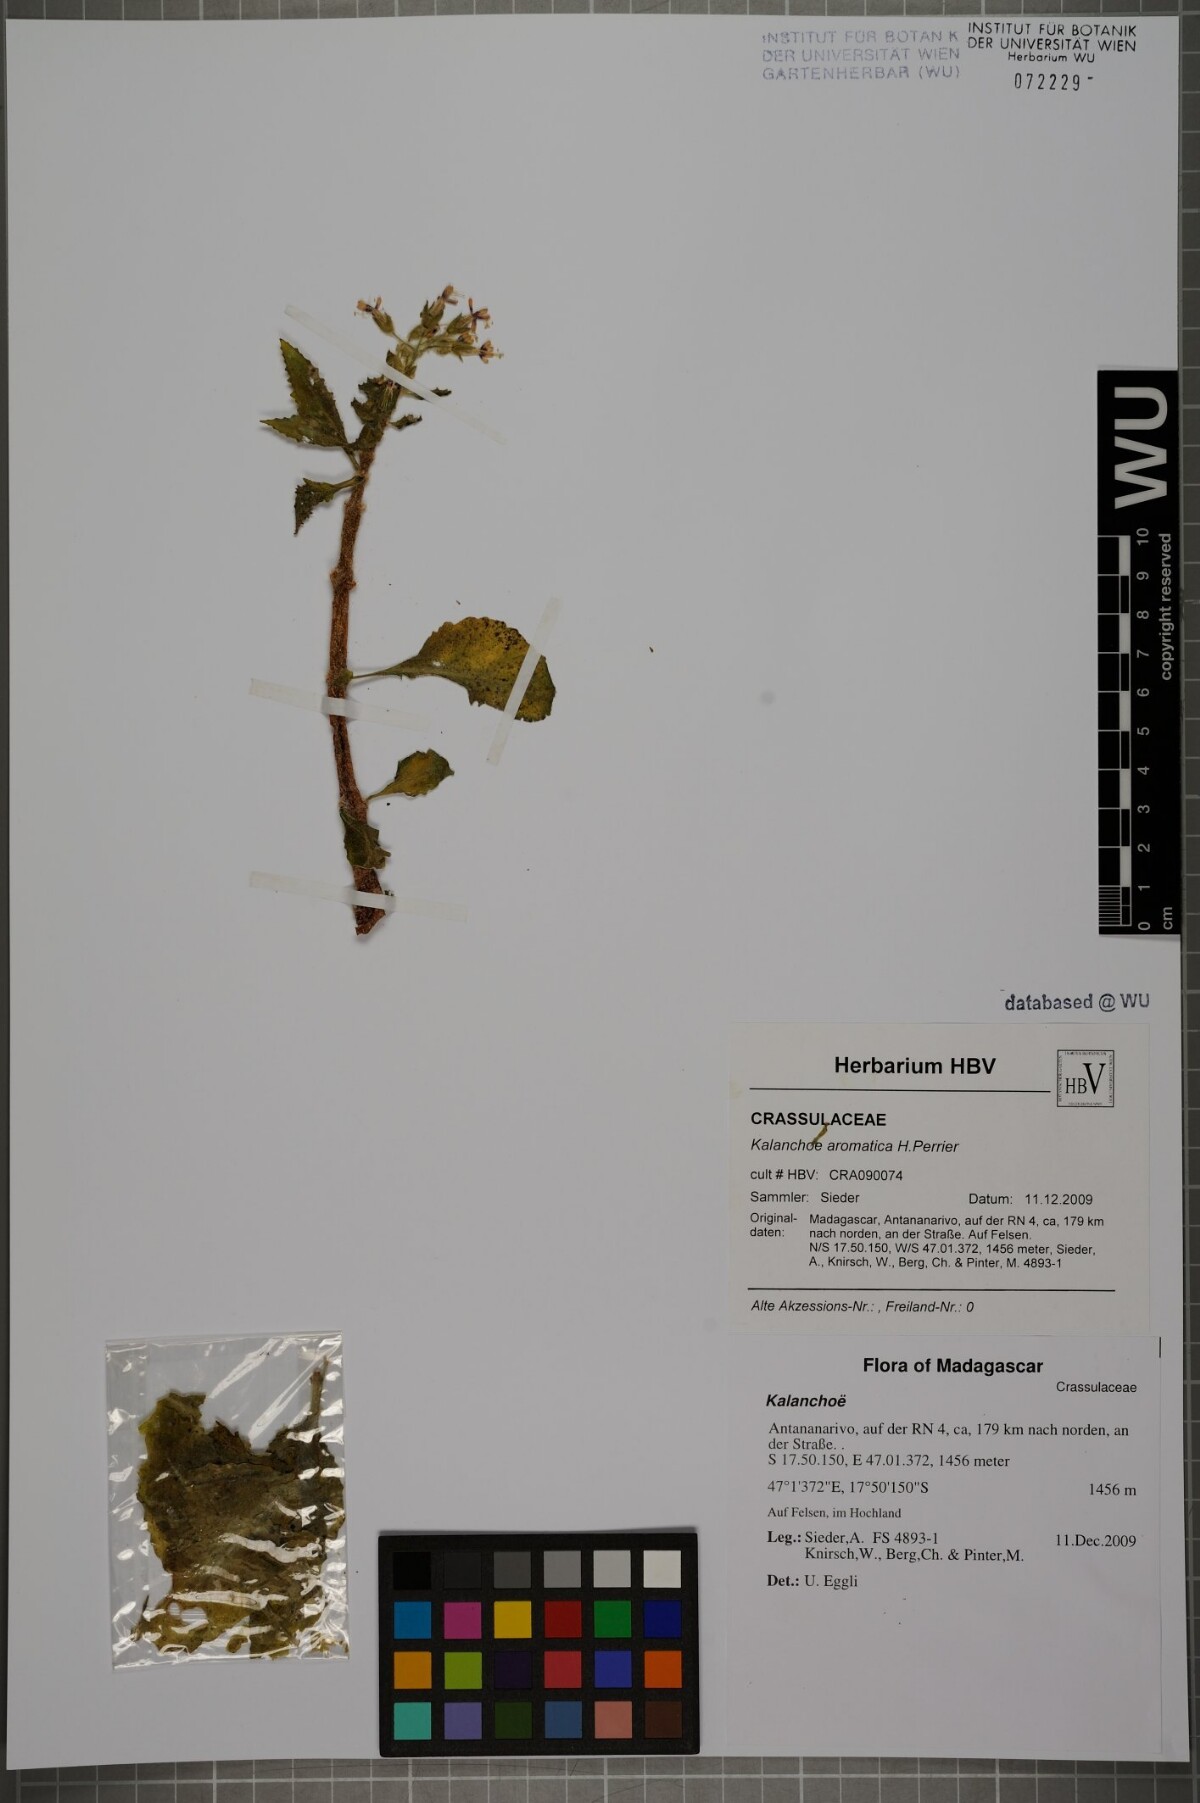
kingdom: Plantae
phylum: Tracheophyta
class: Magnoliopsida
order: Saxifragales
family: Crassulaceae
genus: Kalanchoe
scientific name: Kalanchoe aromatica
